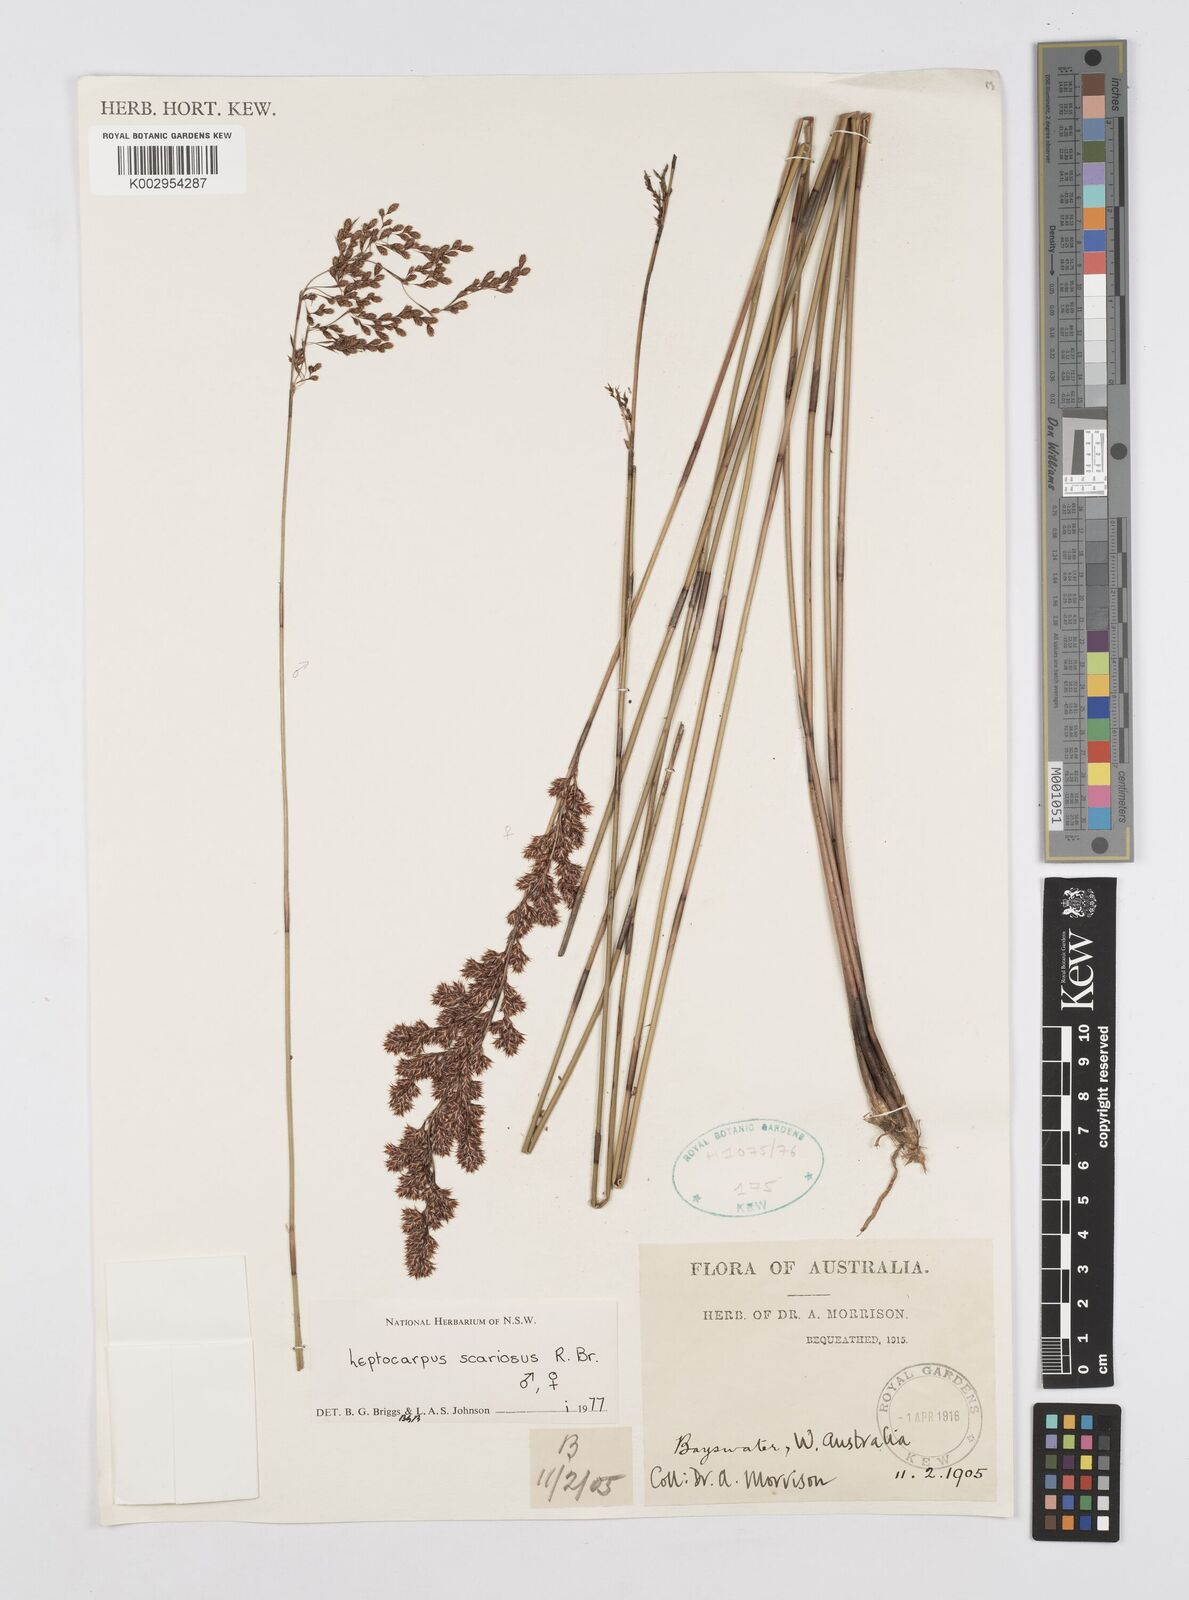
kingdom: Plantae
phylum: Tracheophyta
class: Liliopsida
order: Poales
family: Restionaceae
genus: Leptocarpus
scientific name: Leptocarpus scariosus
